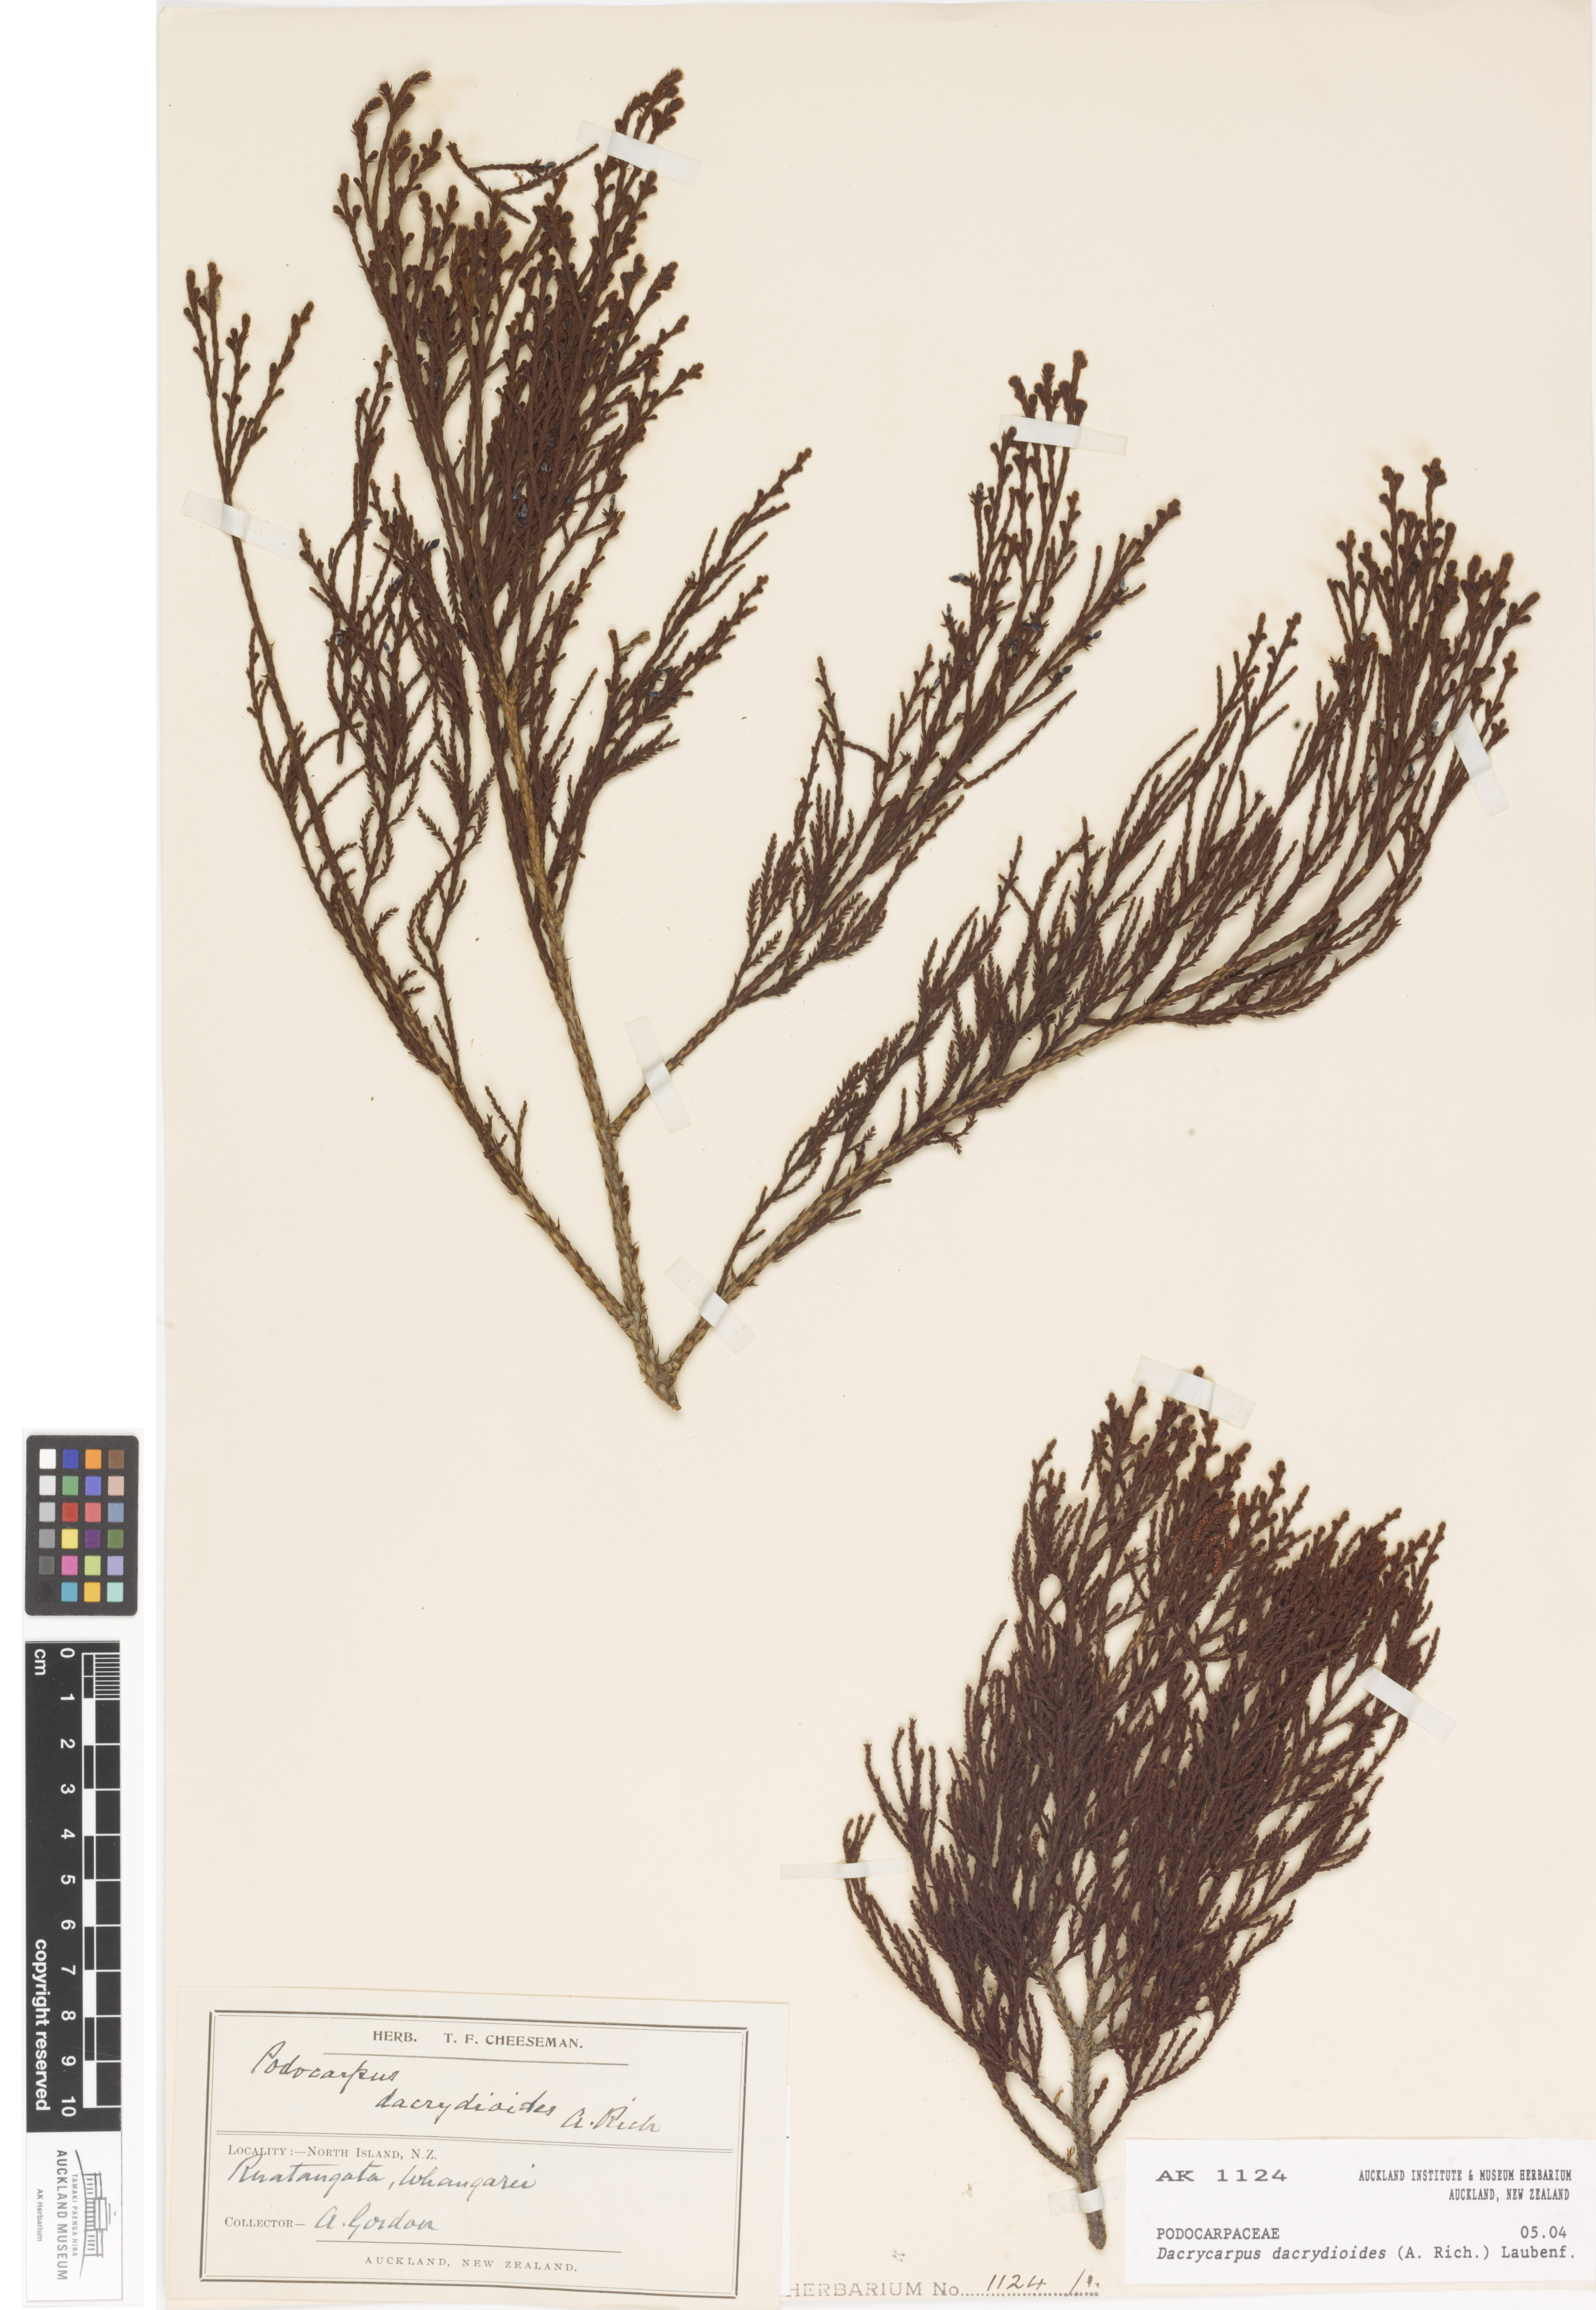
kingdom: Plantae
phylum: Tracheophyta
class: Pinopsida
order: Pinales
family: Podocarpaceae
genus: Dacrycarpus
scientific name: Dacrycarpus dacrydioides
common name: White pine
